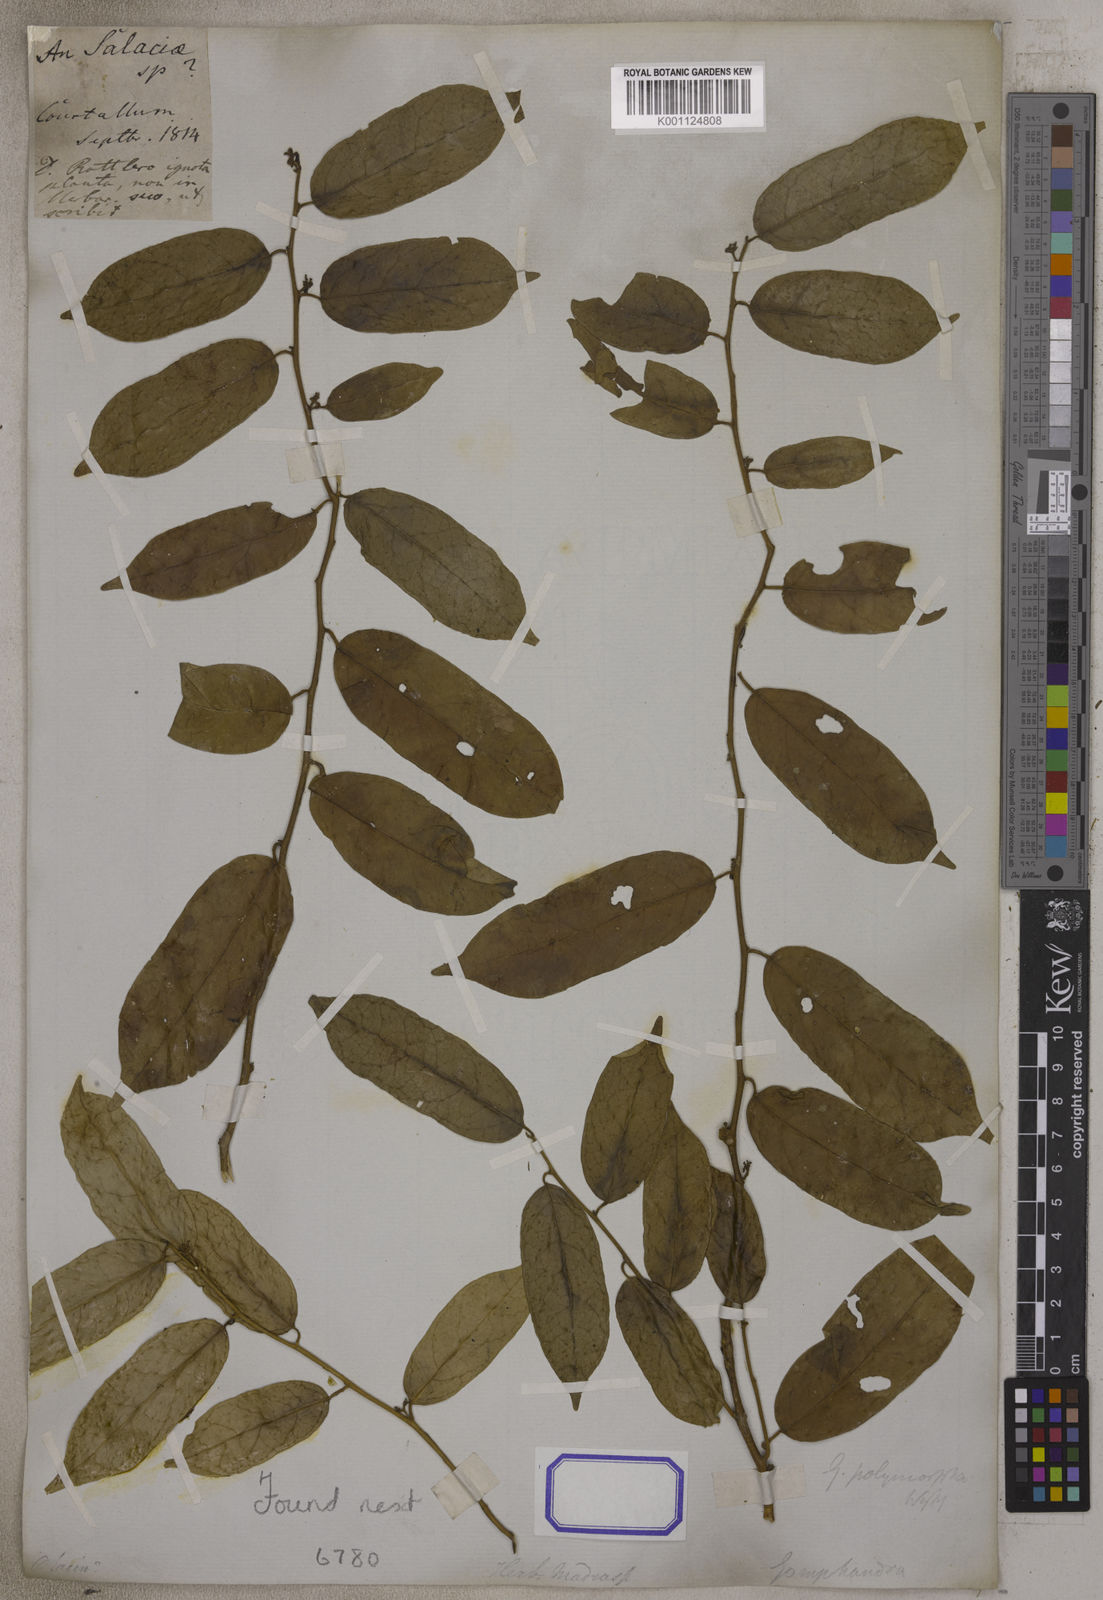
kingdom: Plantae
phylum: Tracheophyta
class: Magnoliopsida
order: Santalales
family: Olacaceae
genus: Olax
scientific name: Olax acuminata
